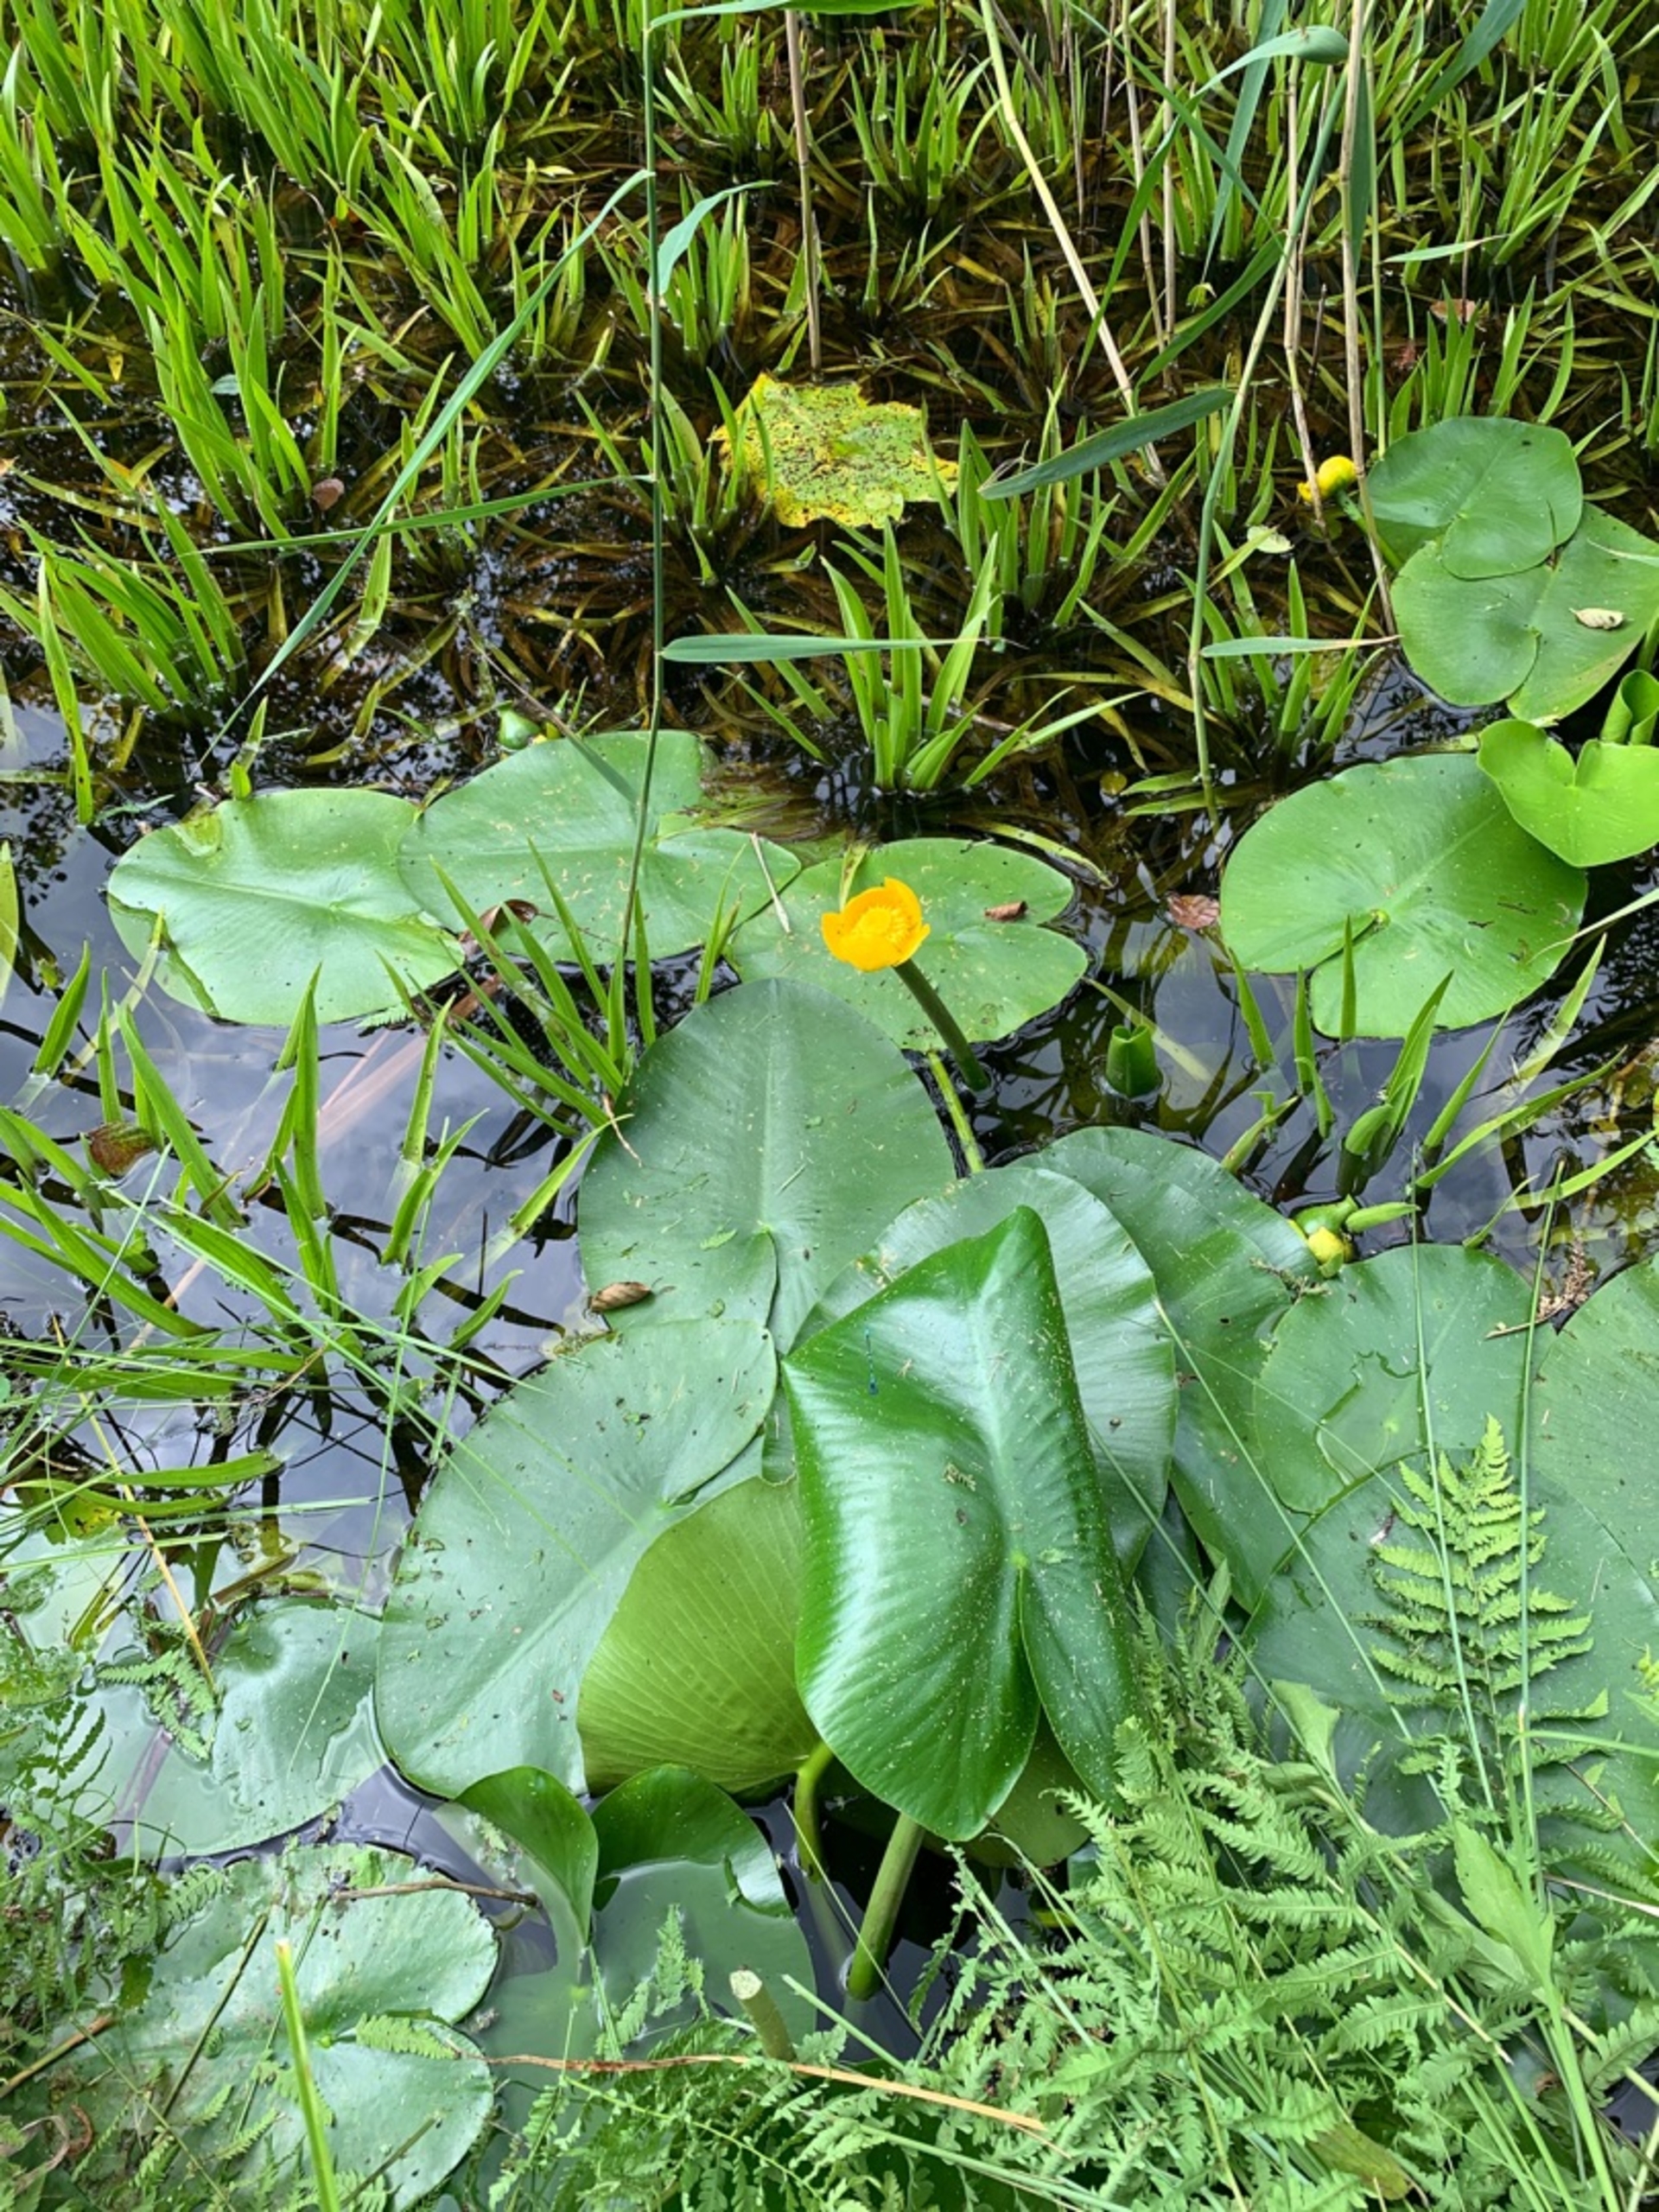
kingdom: Plantae
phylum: Tracheophyta
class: Magnoliopsida
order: Nymphaeales
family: Nymphaeaceae
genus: Nuphar
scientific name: Nuphar lutea
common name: Gul åkande
